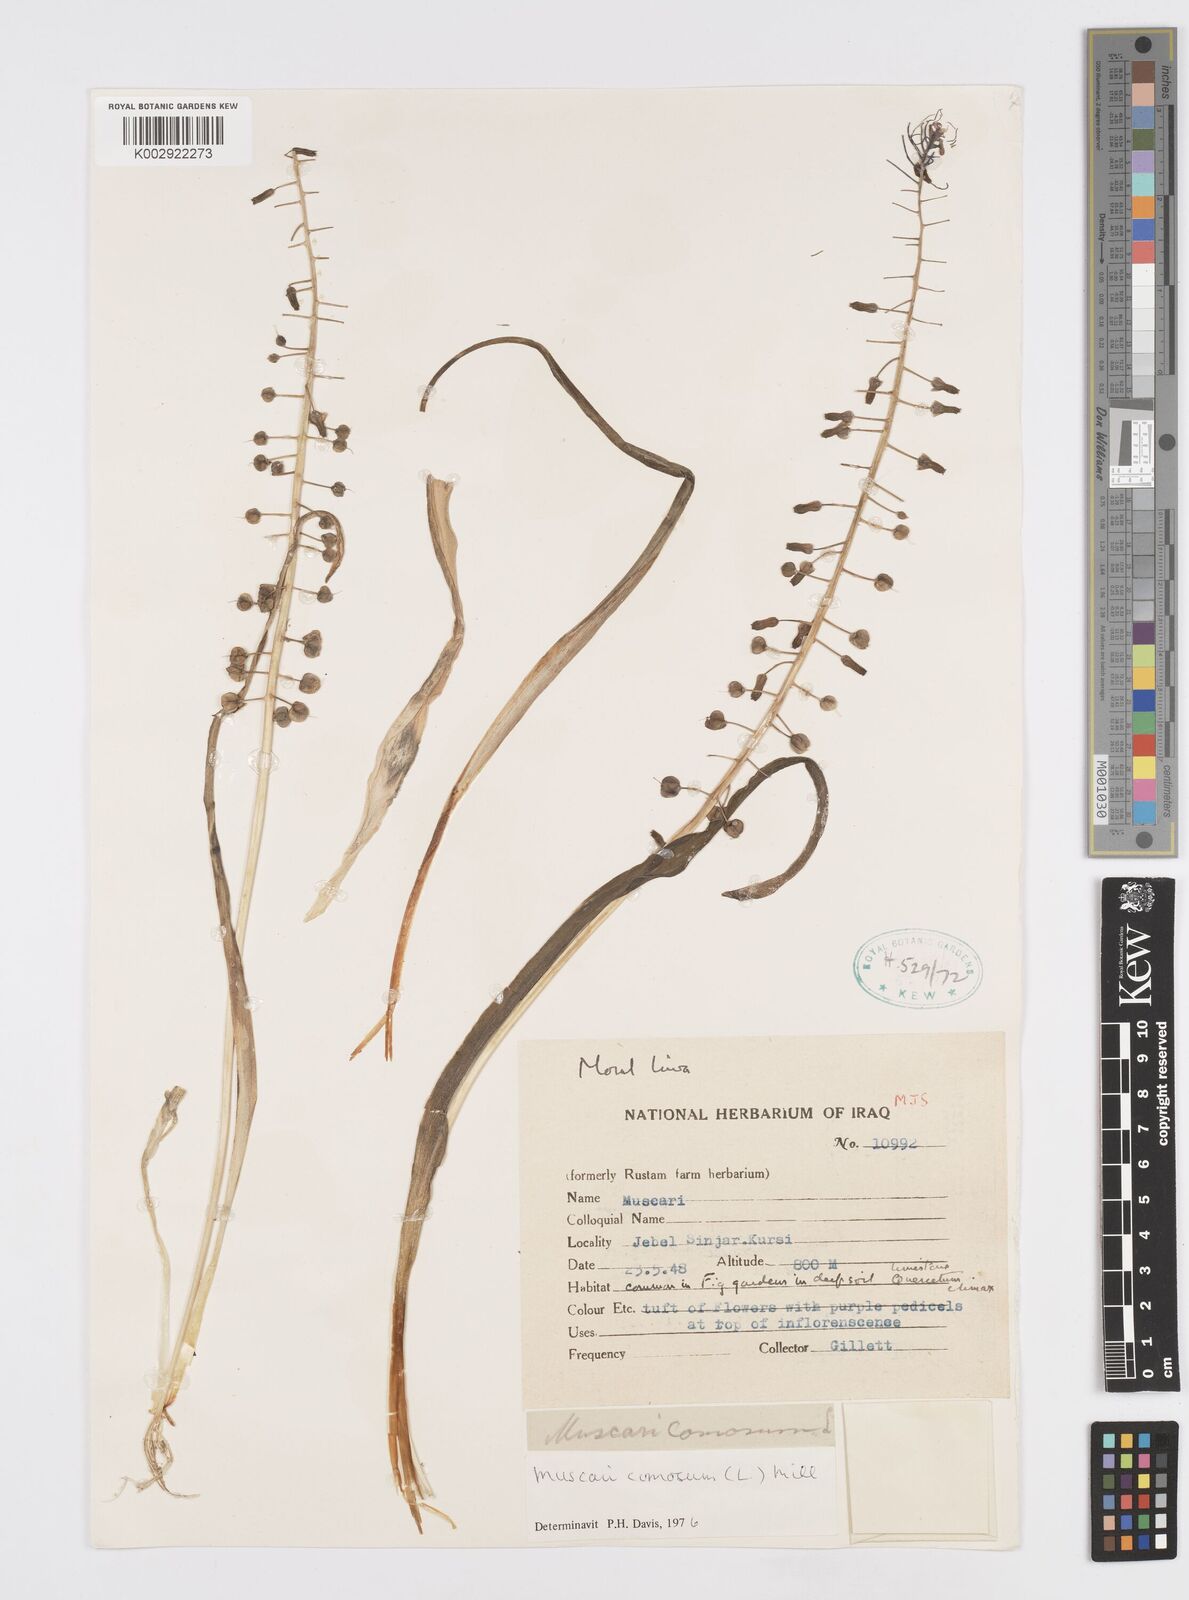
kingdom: Plantae
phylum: Tracheophyta
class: Liliopsida
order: Asparagales
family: Asparagaceae
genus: Muscari
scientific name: Muscari comosum
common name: Tassel hyacinth
